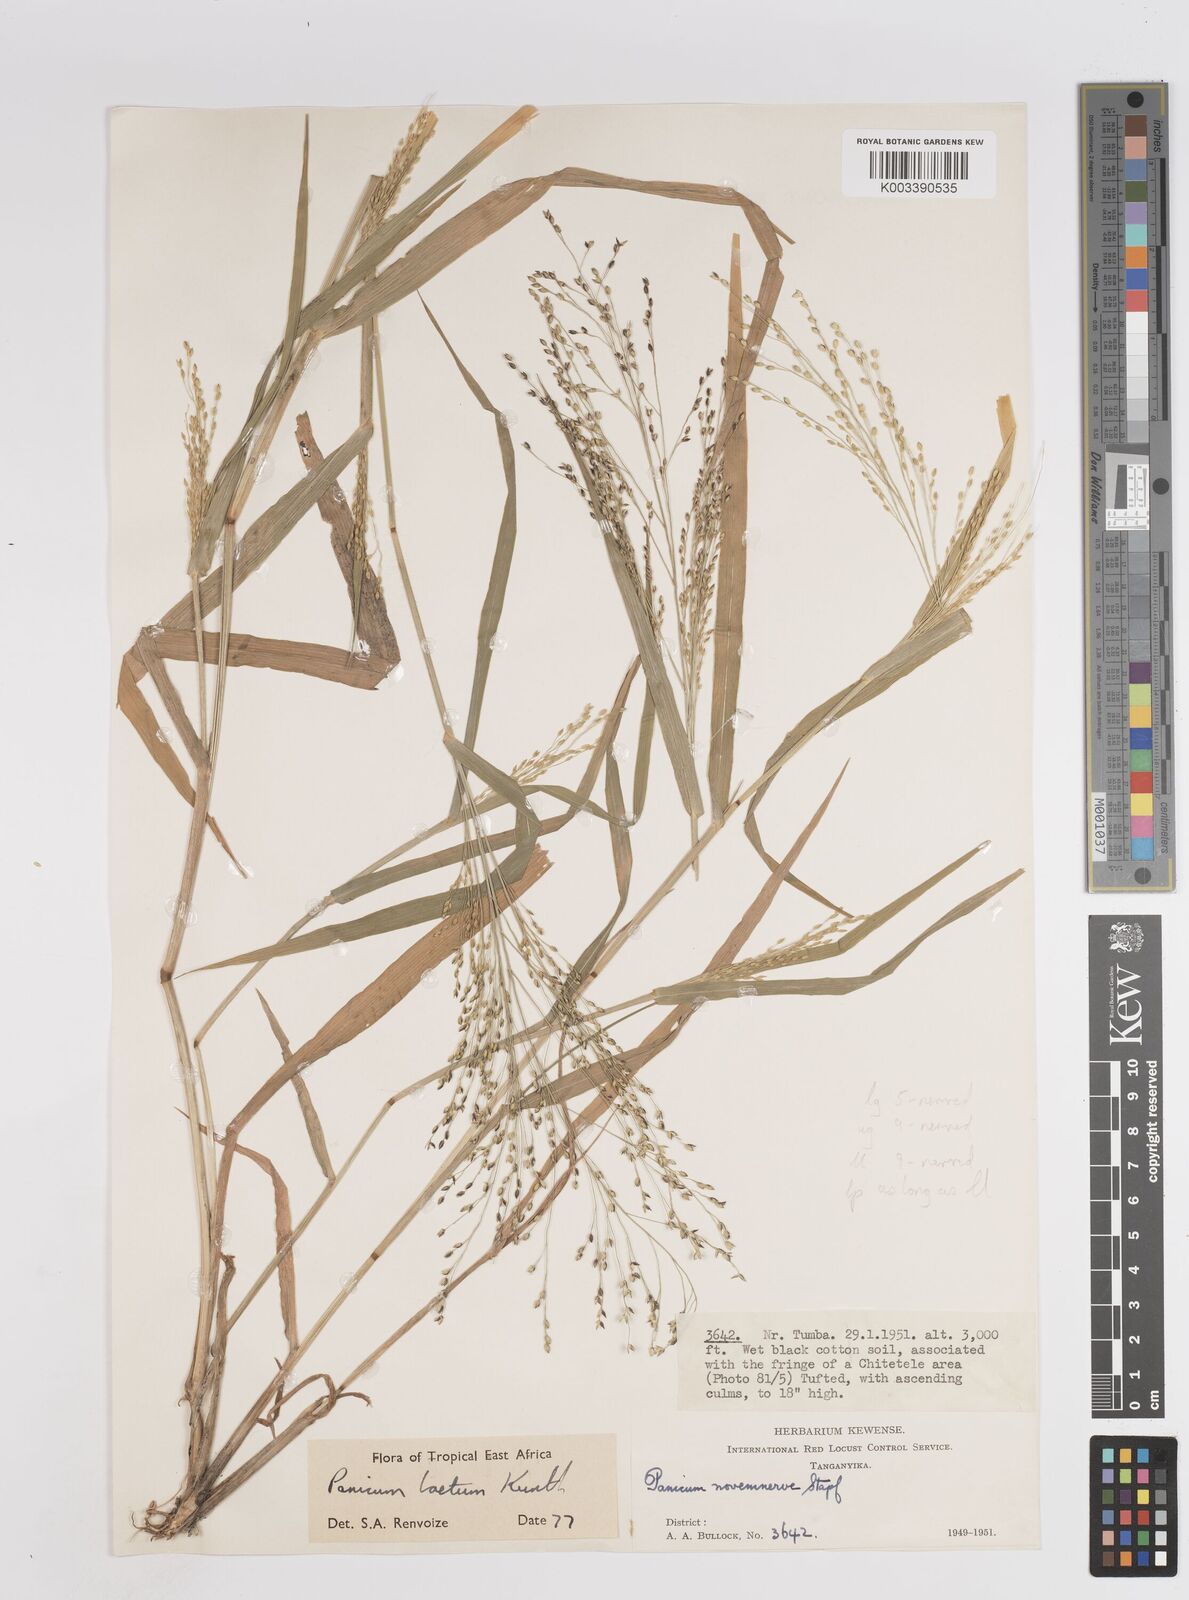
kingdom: Plantae
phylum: Tracheophyta
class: Liliopsida
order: Poales
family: Poaceae
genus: Panicum
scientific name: Panicum laetum
